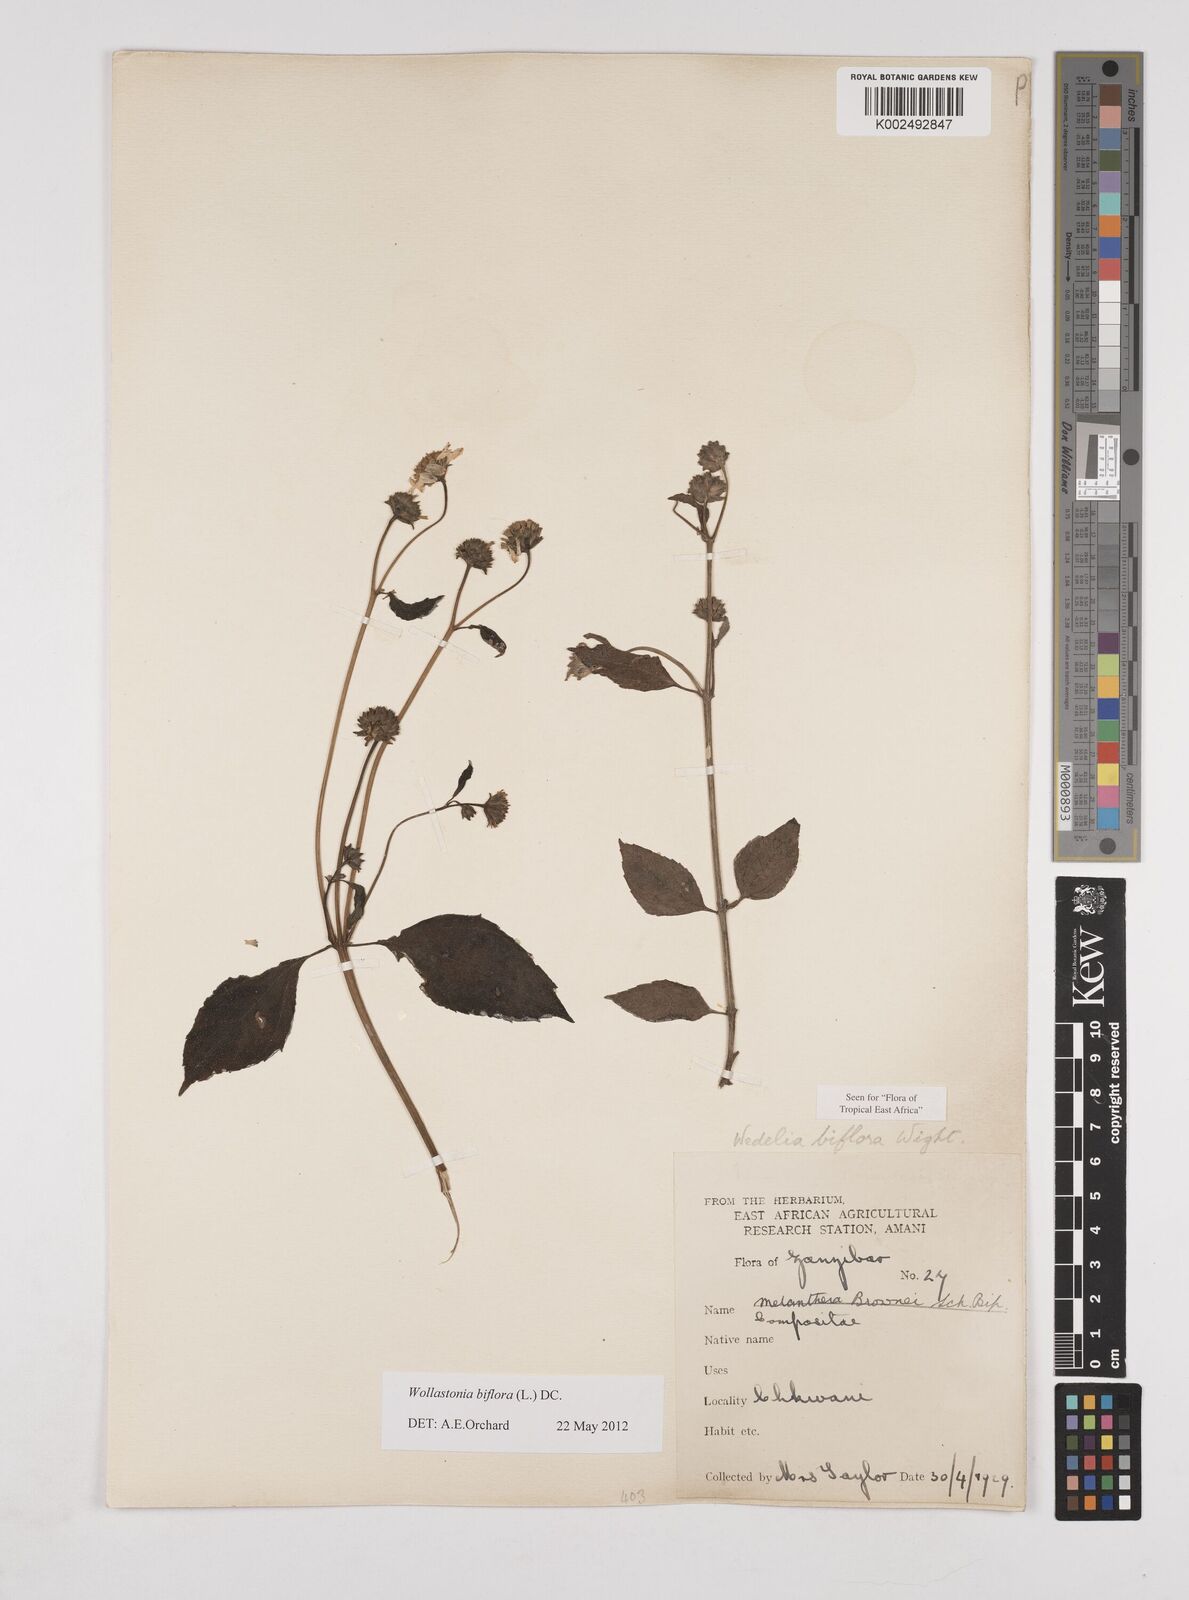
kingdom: Plantae
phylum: Tracheophyta
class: Magnoliopsida
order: Asterales
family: Asteraceae
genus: Wollastonia
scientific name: Wollastonia biflora
